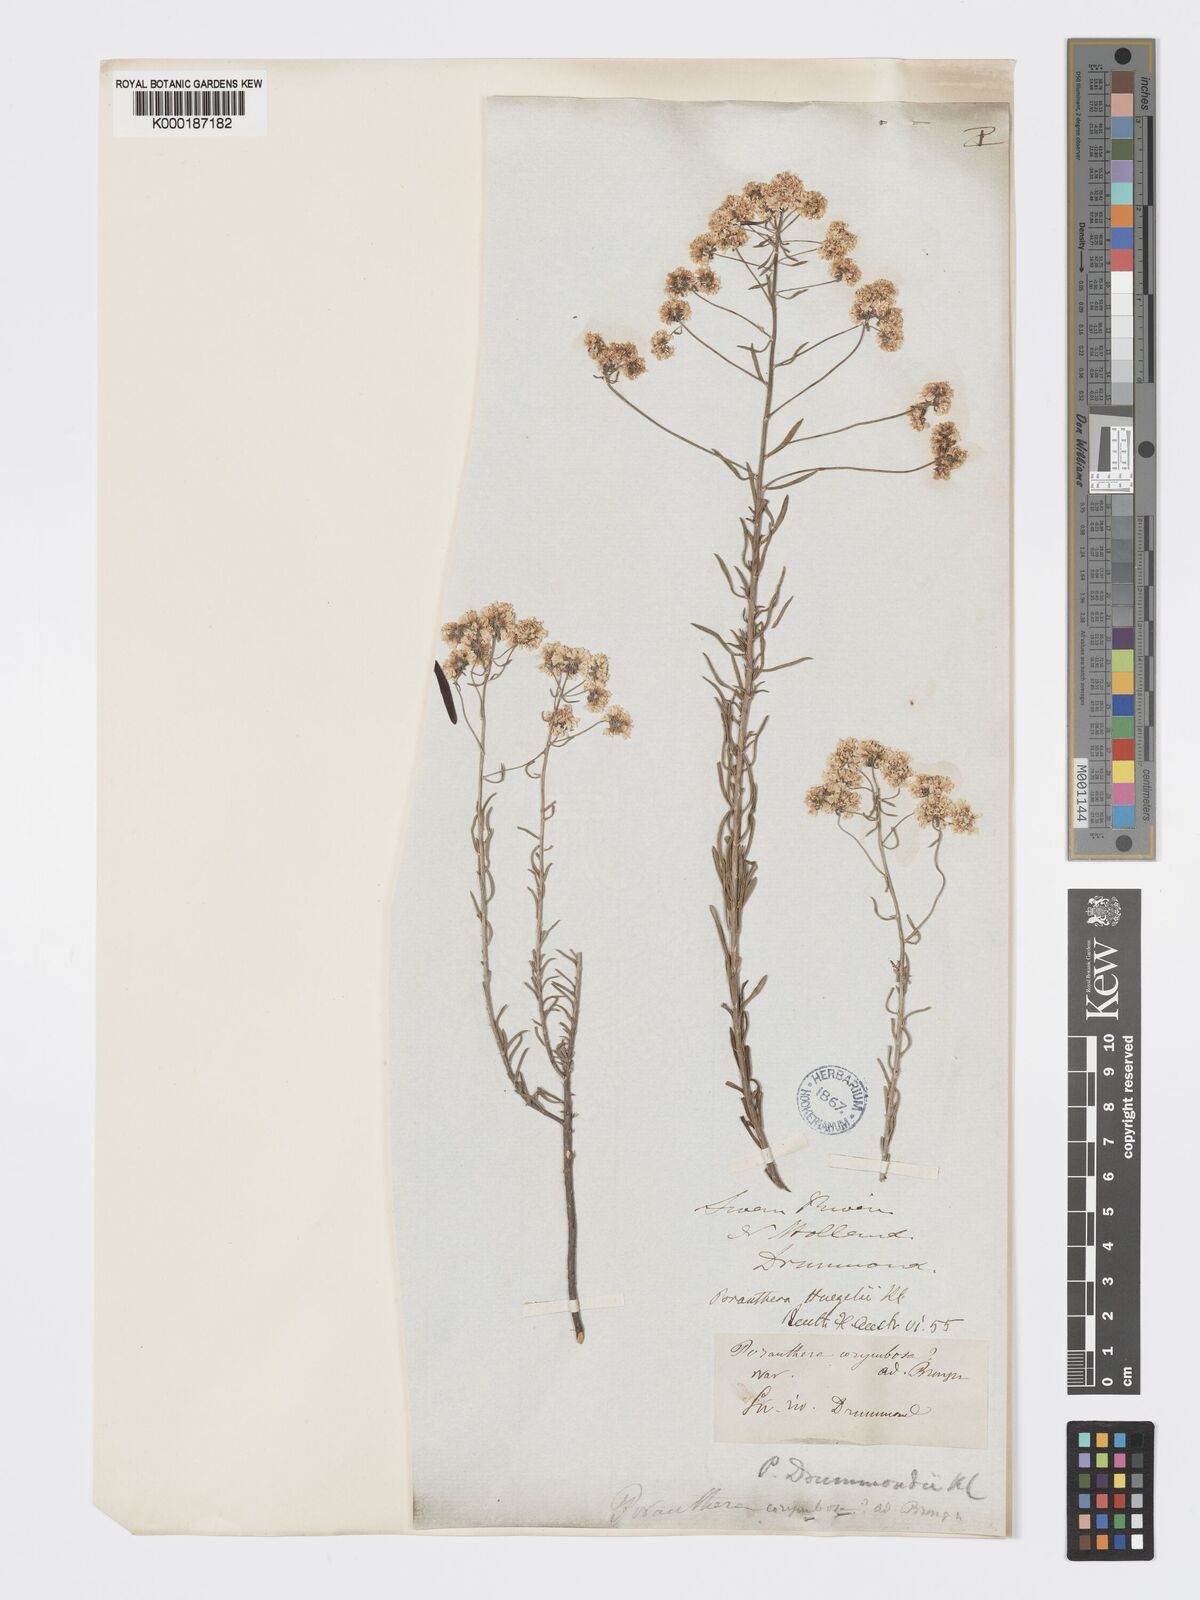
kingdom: Plantae
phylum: Tracheophyta
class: Magnoliopsida
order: Malpighiales
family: Phyllanthaceae
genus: Poranthera
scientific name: Poranthera huegelii
